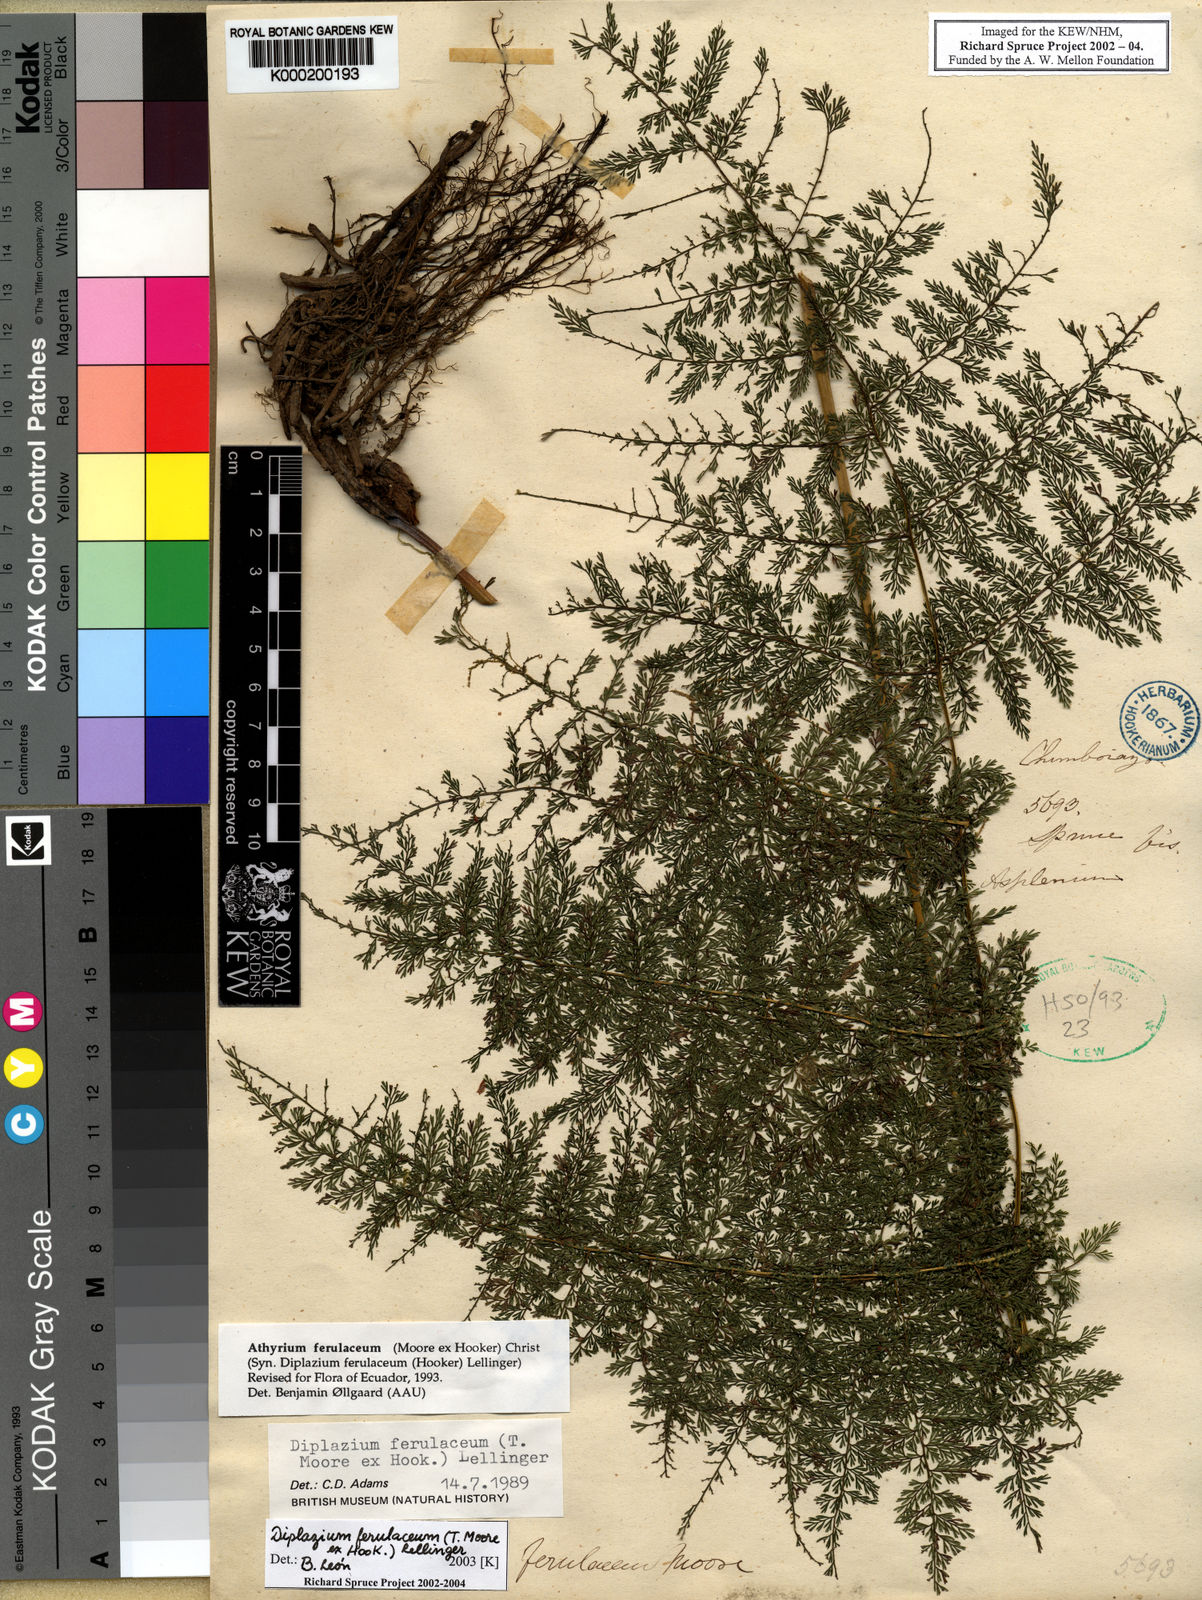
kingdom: Plantae
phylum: Tracheophyta
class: Polypodiopsida
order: Polypodiales
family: Athyriaceae
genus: Athyrium
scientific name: Athyrium
